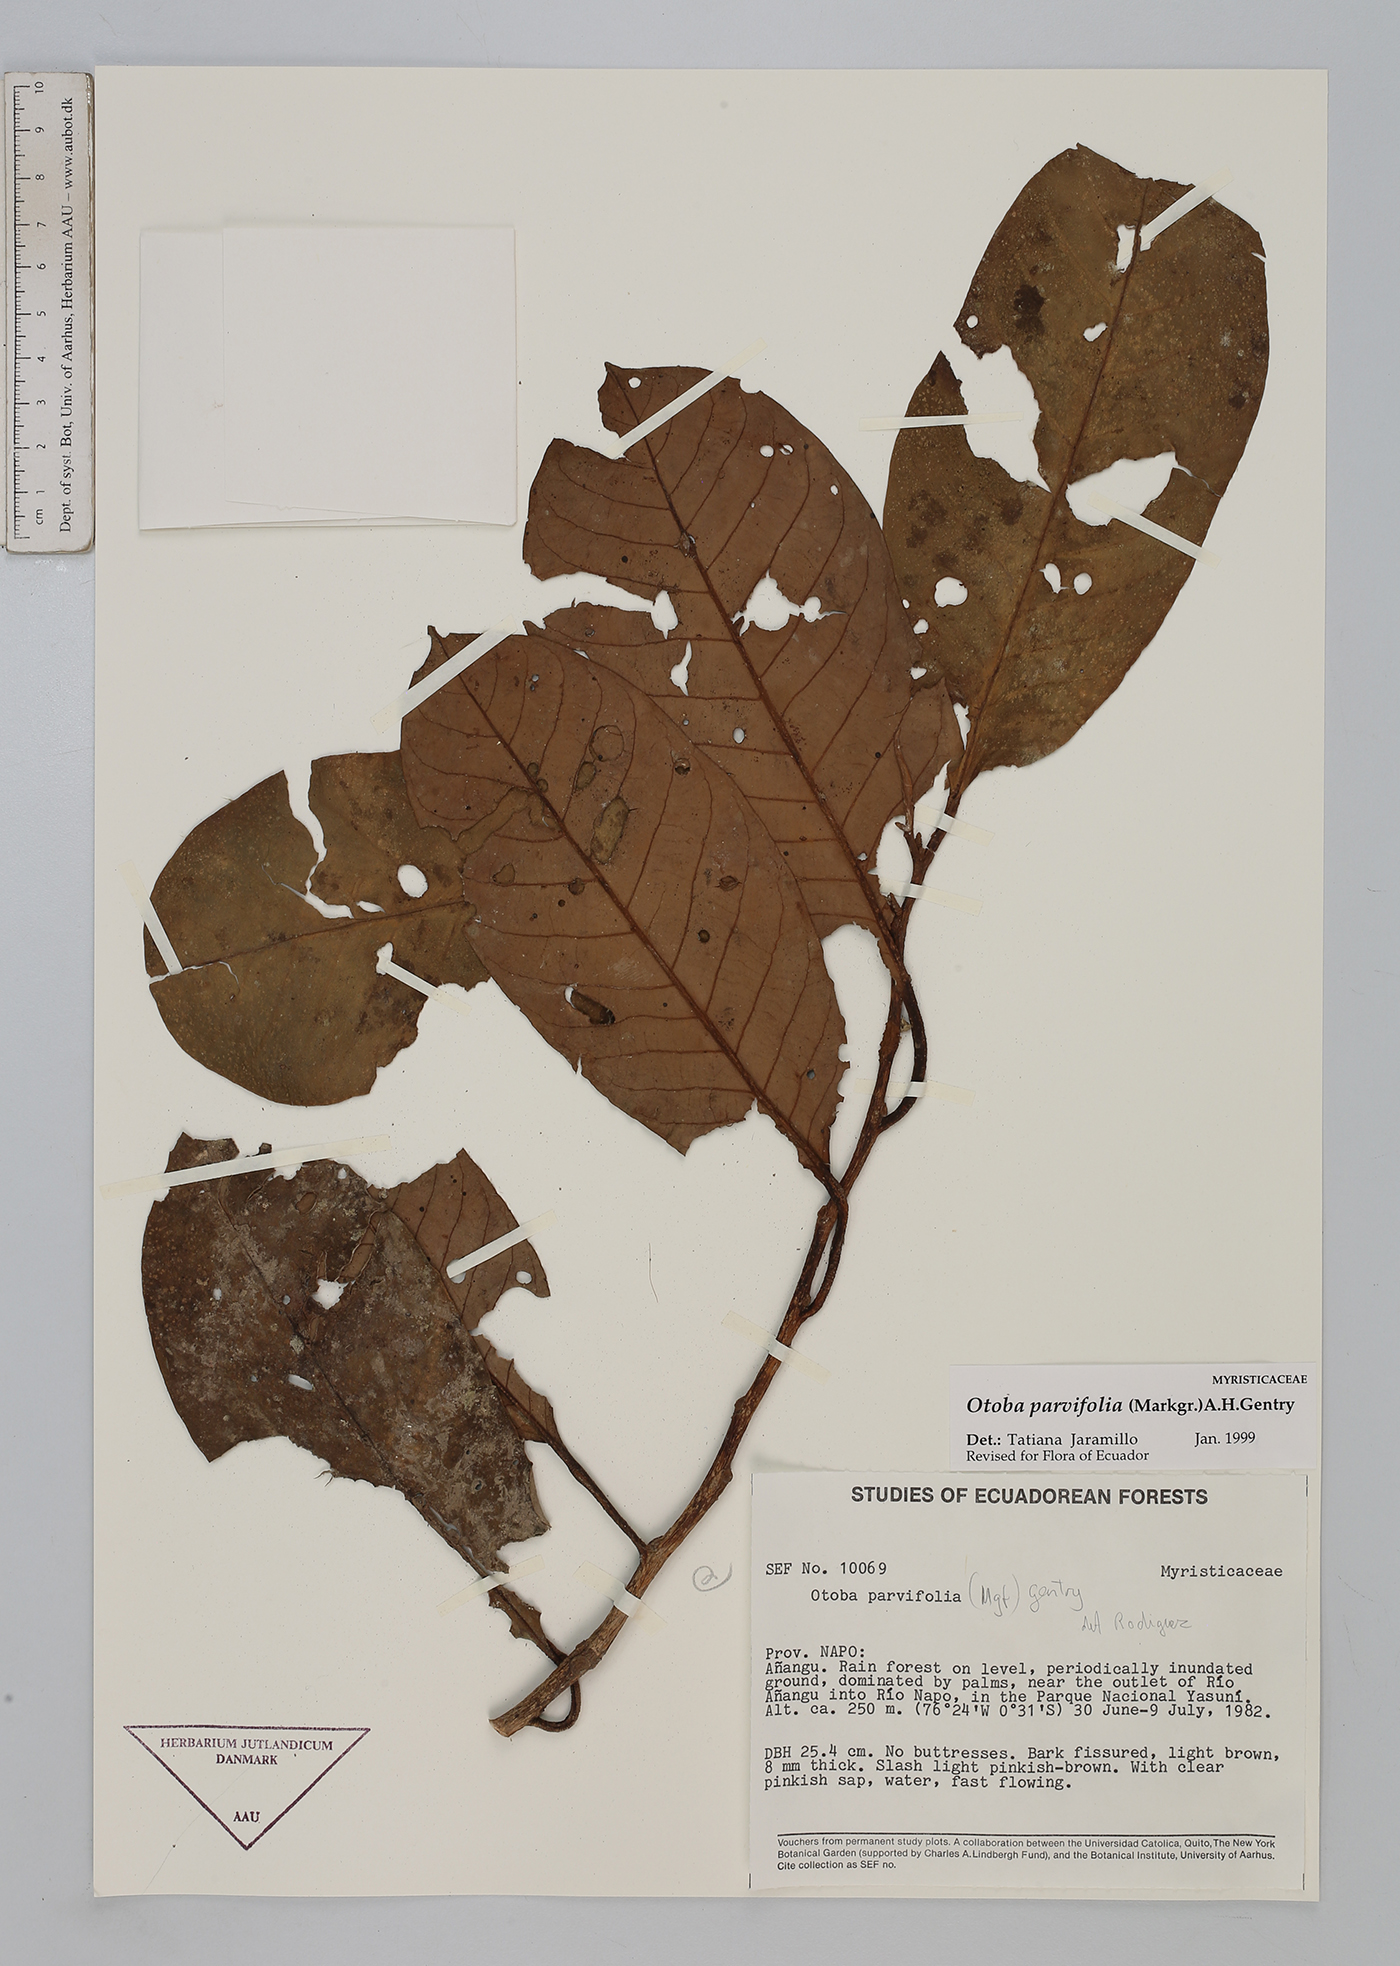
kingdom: Plantae
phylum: Tracheophyta
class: Magnoliopsida
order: Magnoliales
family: Myristicaceae
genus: Otoba
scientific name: Otoba parvifolia
